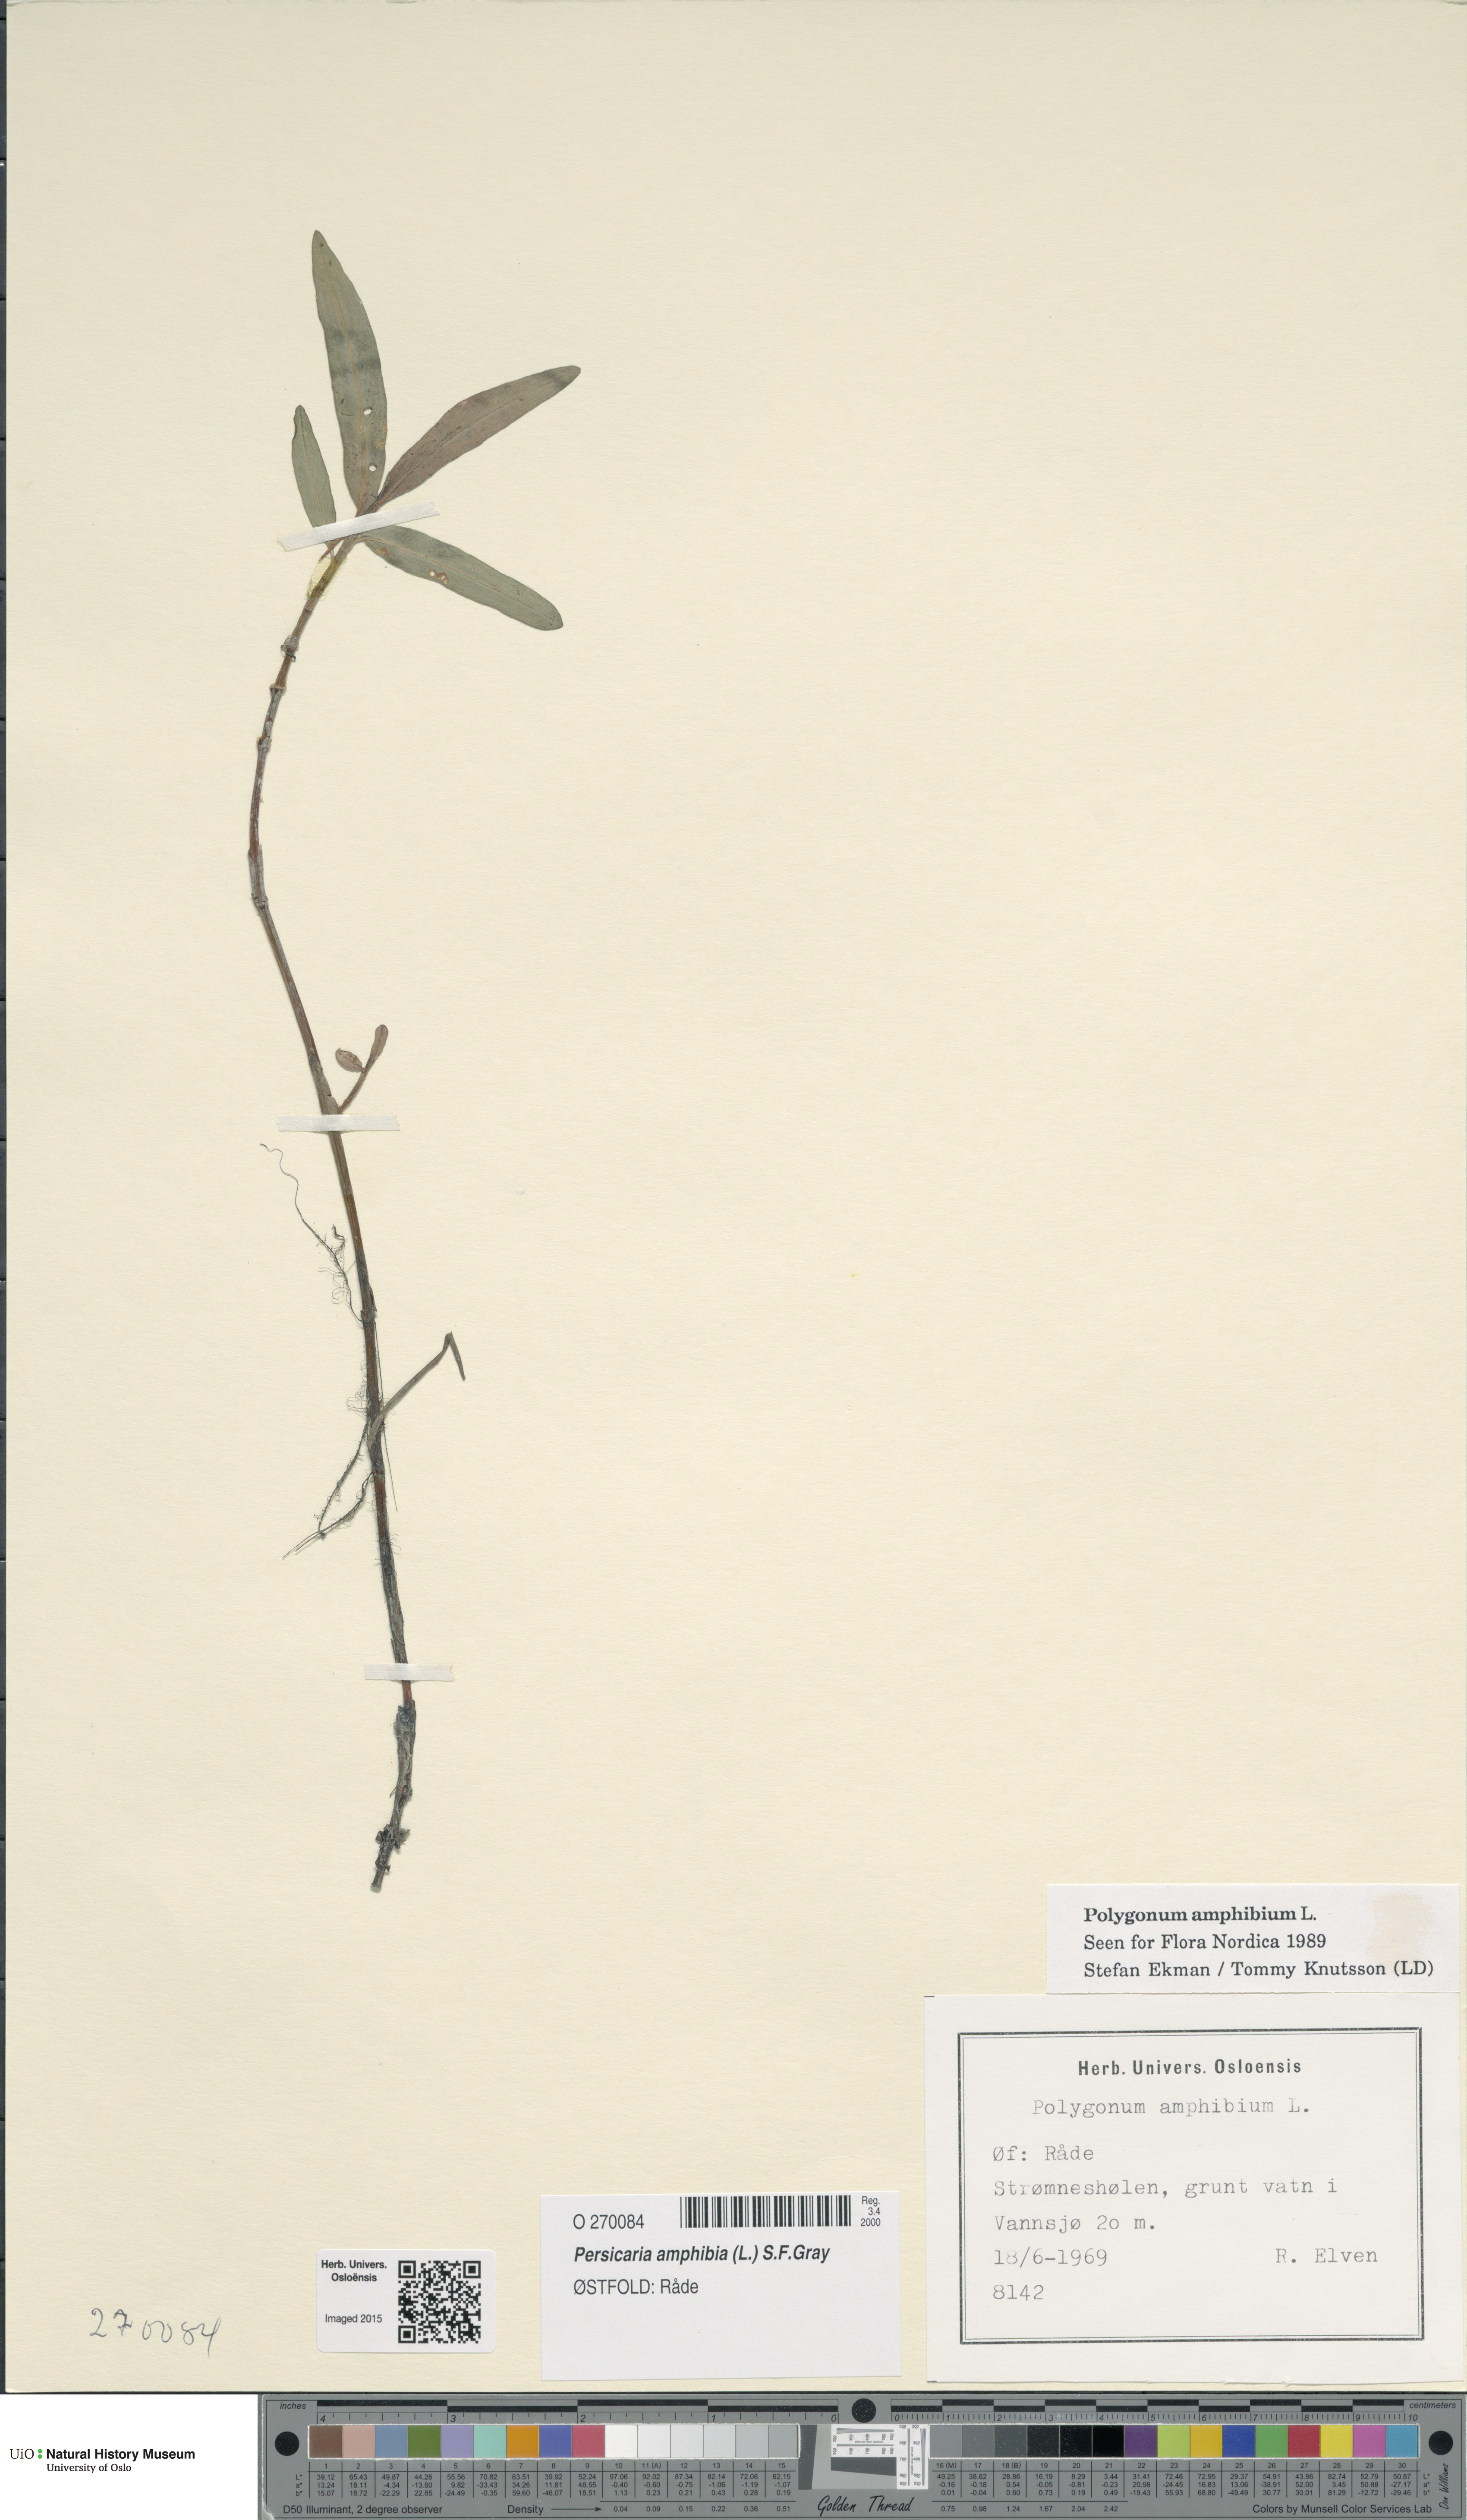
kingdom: Plantae
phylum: Tracheophyta
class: Magnoliopsida
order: Caryophyllales
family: Polygonaceae
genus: Persicaria
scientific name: Persicaria amphibia
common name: Amphibious bistort
